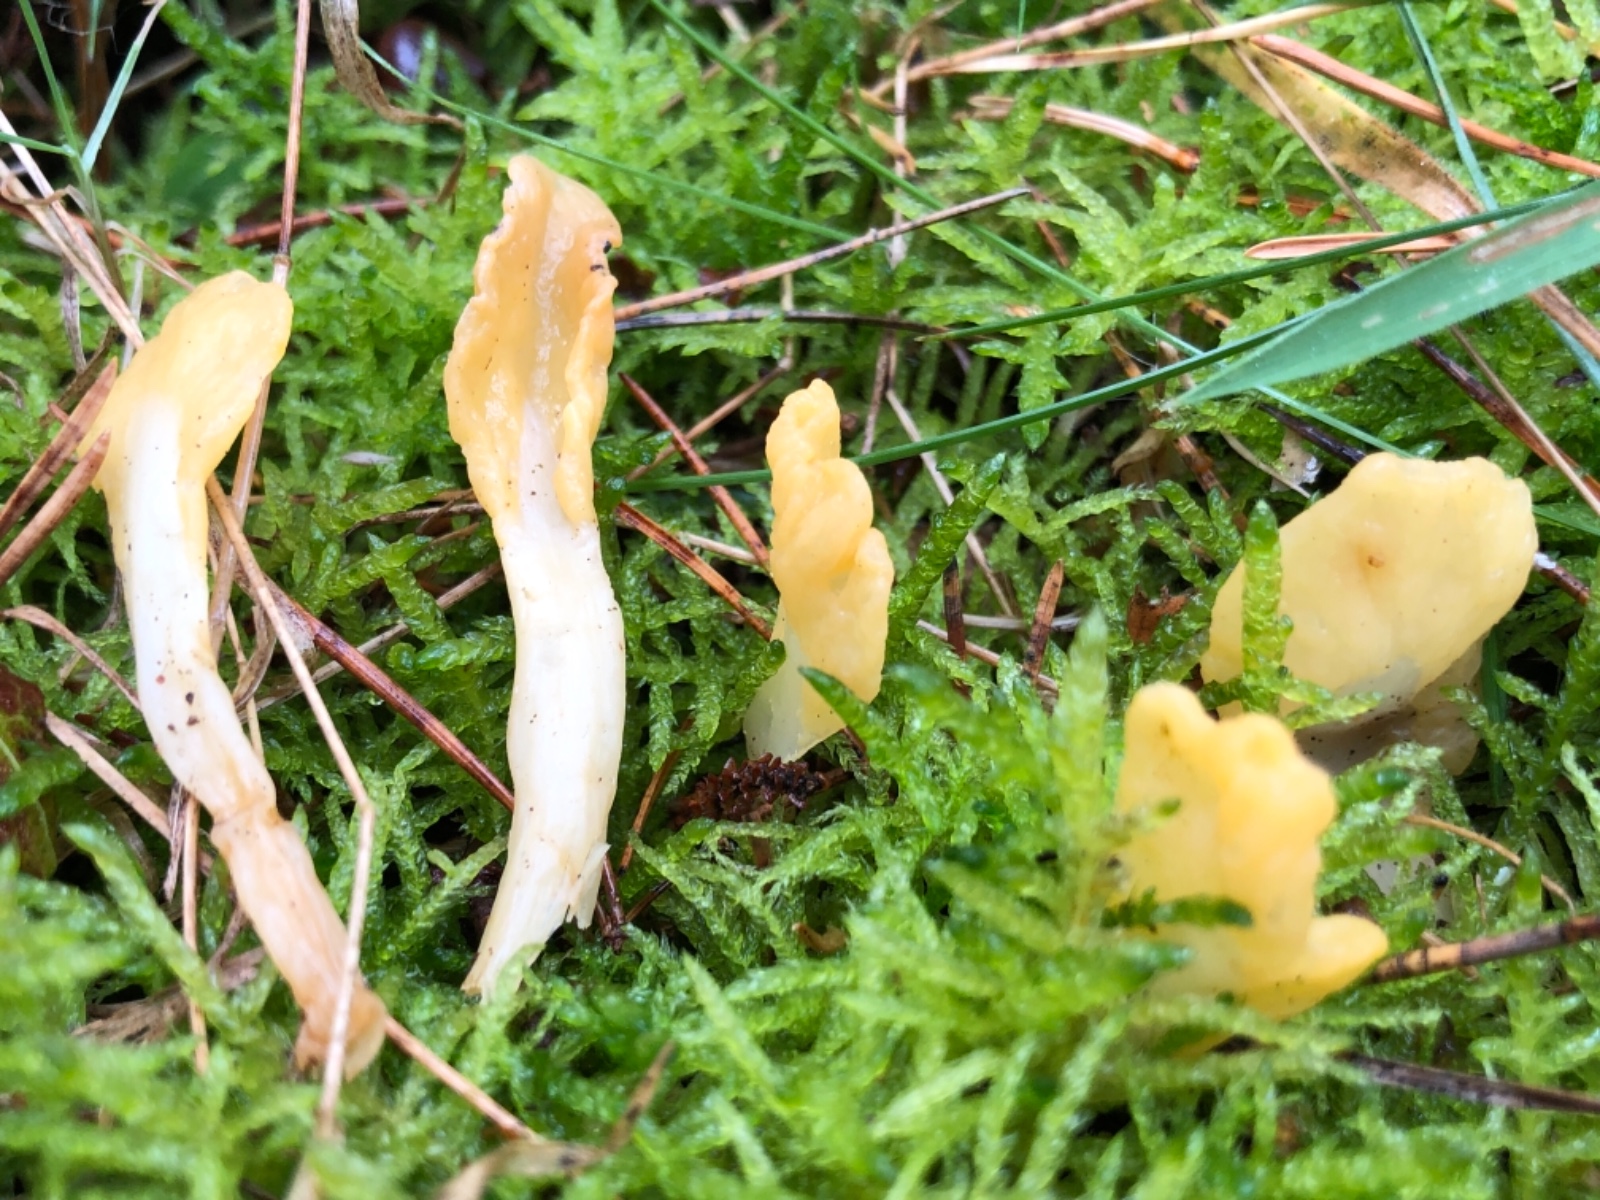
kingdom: Fungi
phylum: Ascomycota
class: Leotiomycetes
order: Rhytismatales
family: Cudoniaceae
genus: Spathularia
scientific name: Spathularia flavida
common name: gul spatelsvamp
